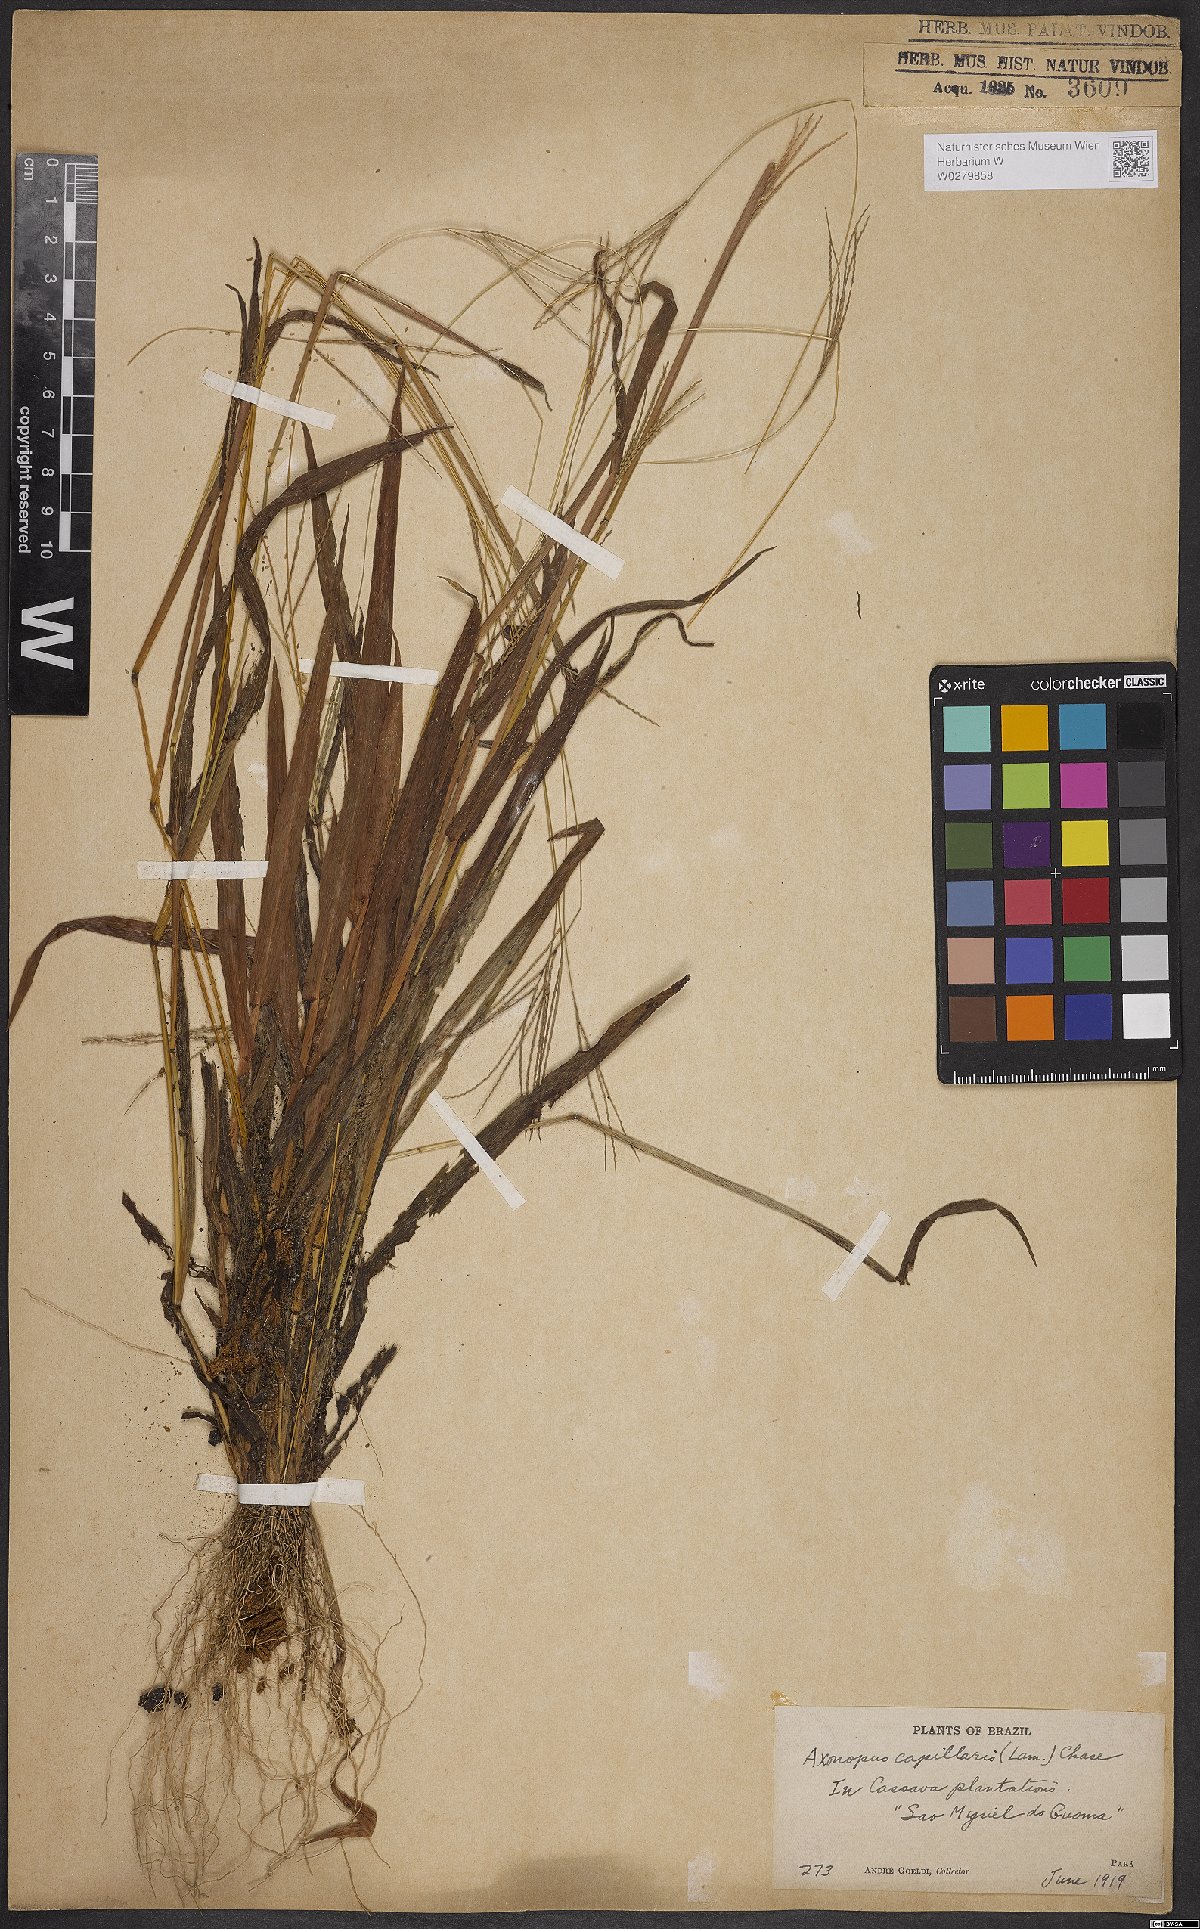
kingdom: Plantae
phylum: Tracheophyta
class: Liliopsida
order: Poales
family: Poaceae
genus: Axonopus
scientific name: Axonopus capillaris
